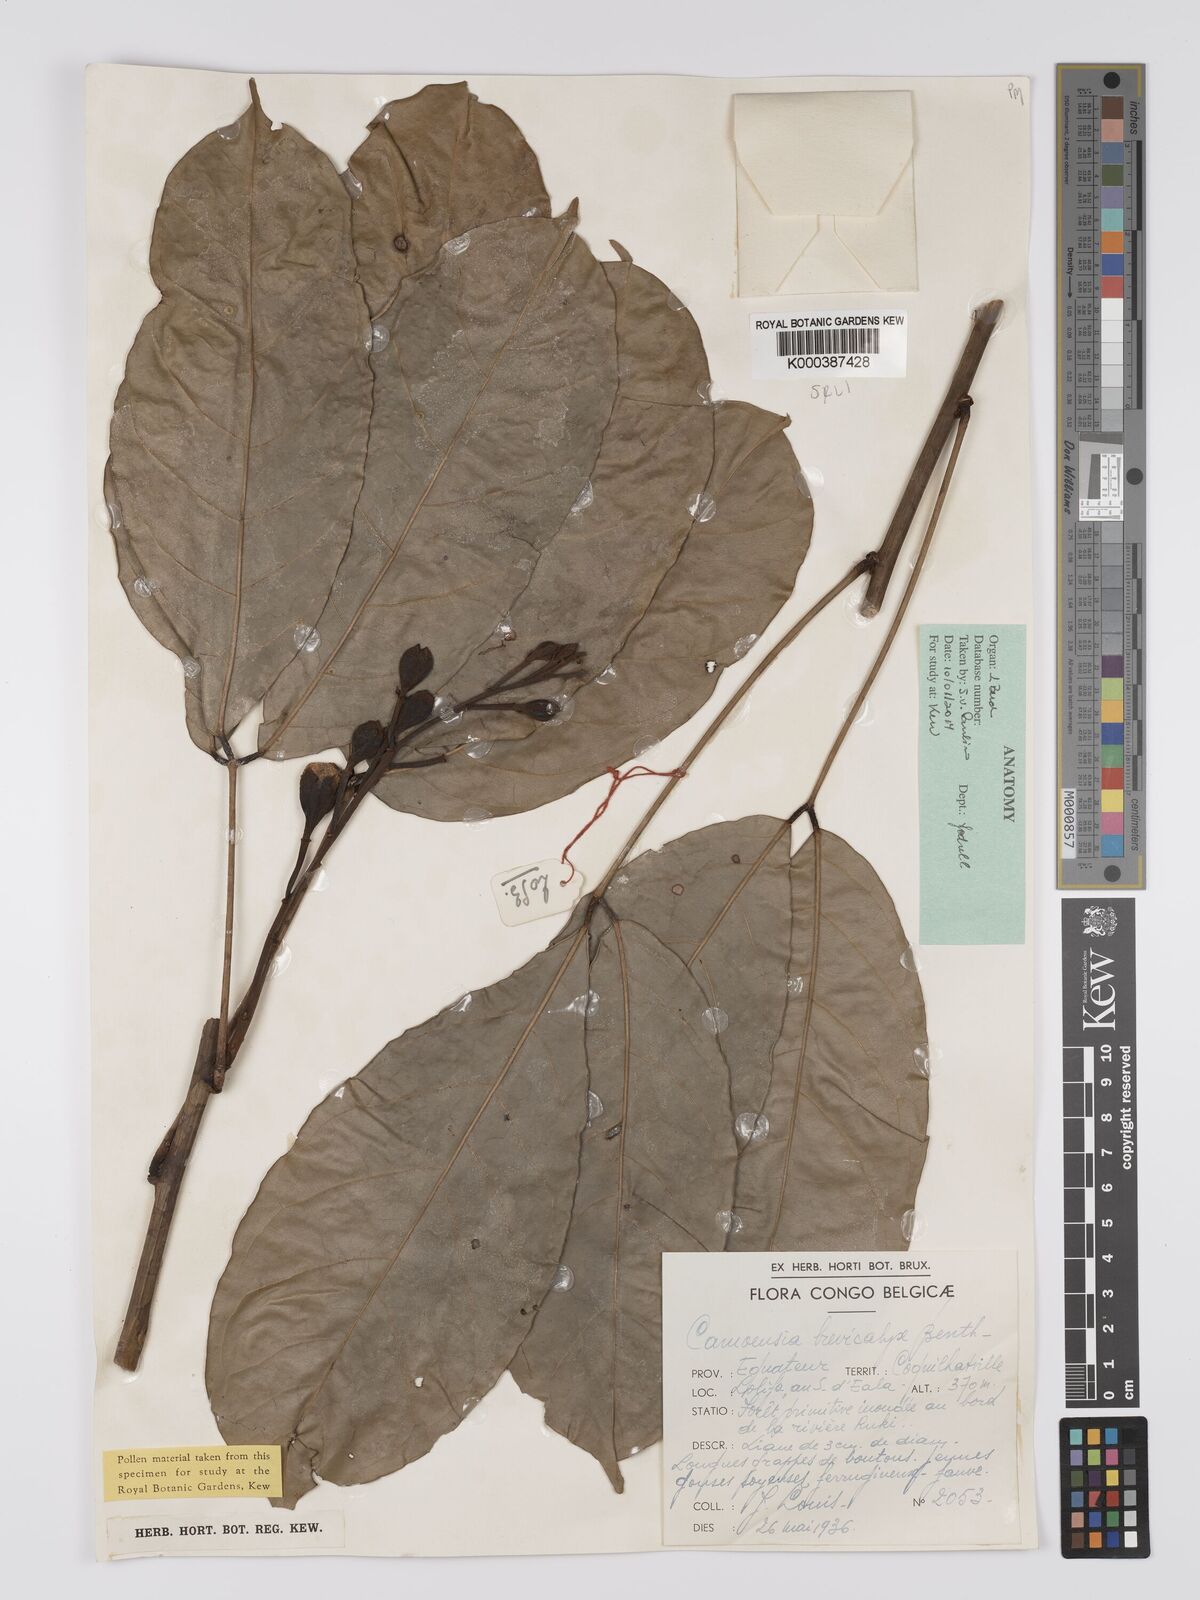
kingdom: Plantae
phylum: Tracheophyta
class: Magnoliopsida
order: Fabales
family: Fabaceae
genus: Camoensia
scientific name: Camoensia brevicalyx
